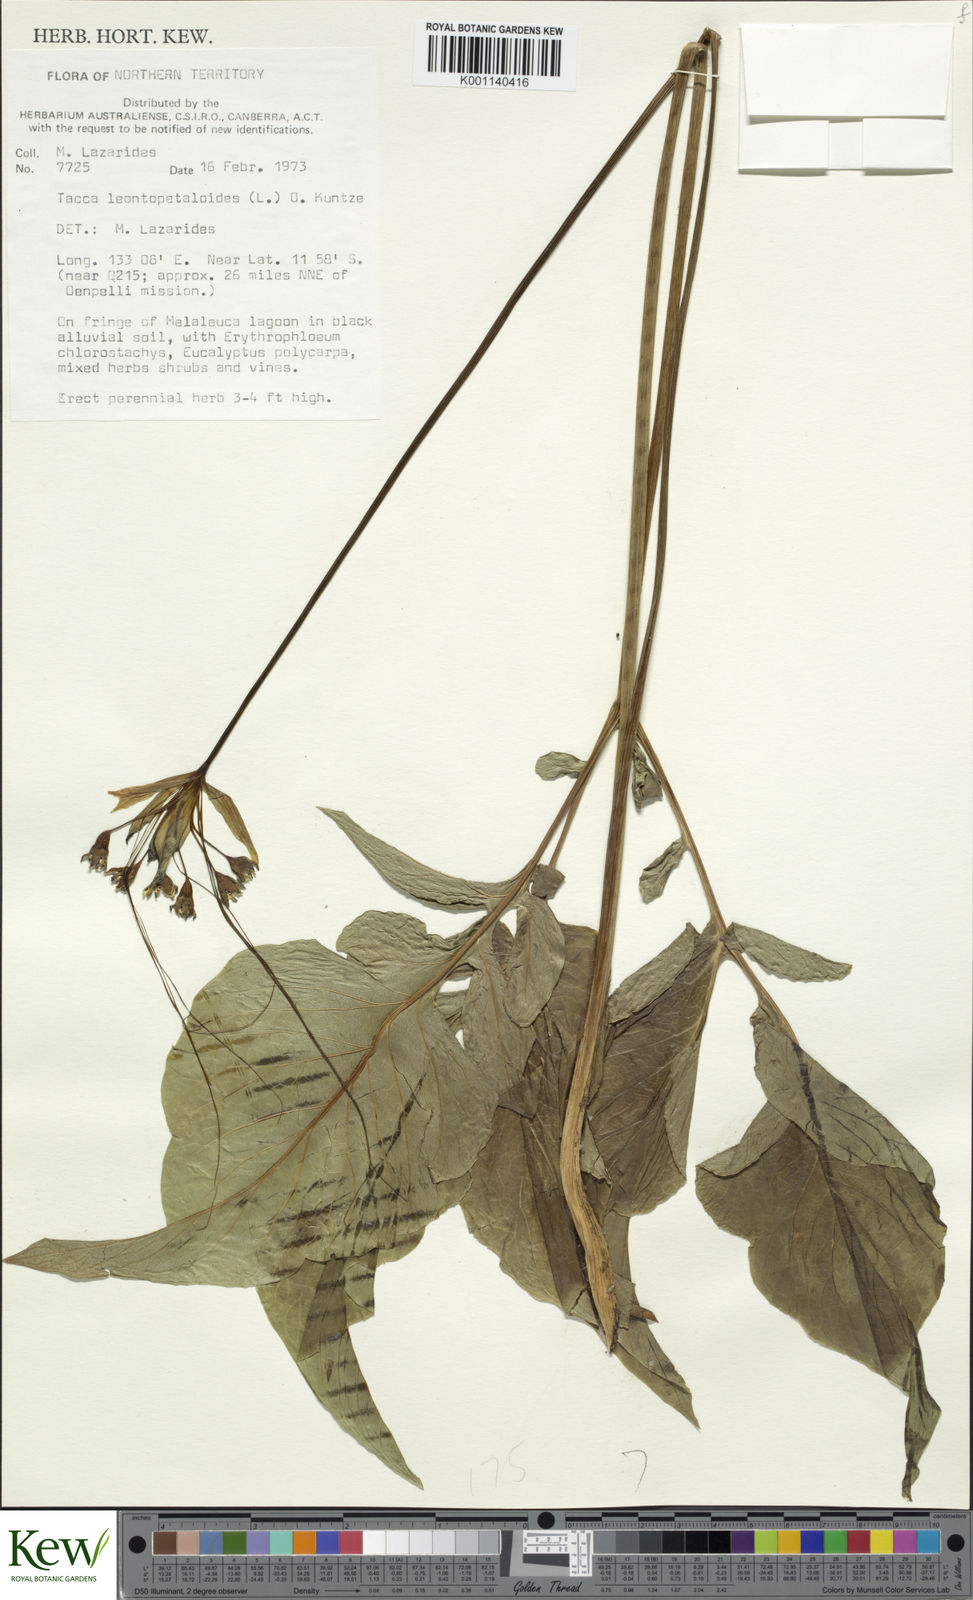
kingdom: Plantae
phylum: Tracheophyta
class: Liliopsida
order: Dioscoreales
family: Dioscoreaceae
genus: Tacca
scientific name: Tacca leontopetaloides
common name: Arrowroot
